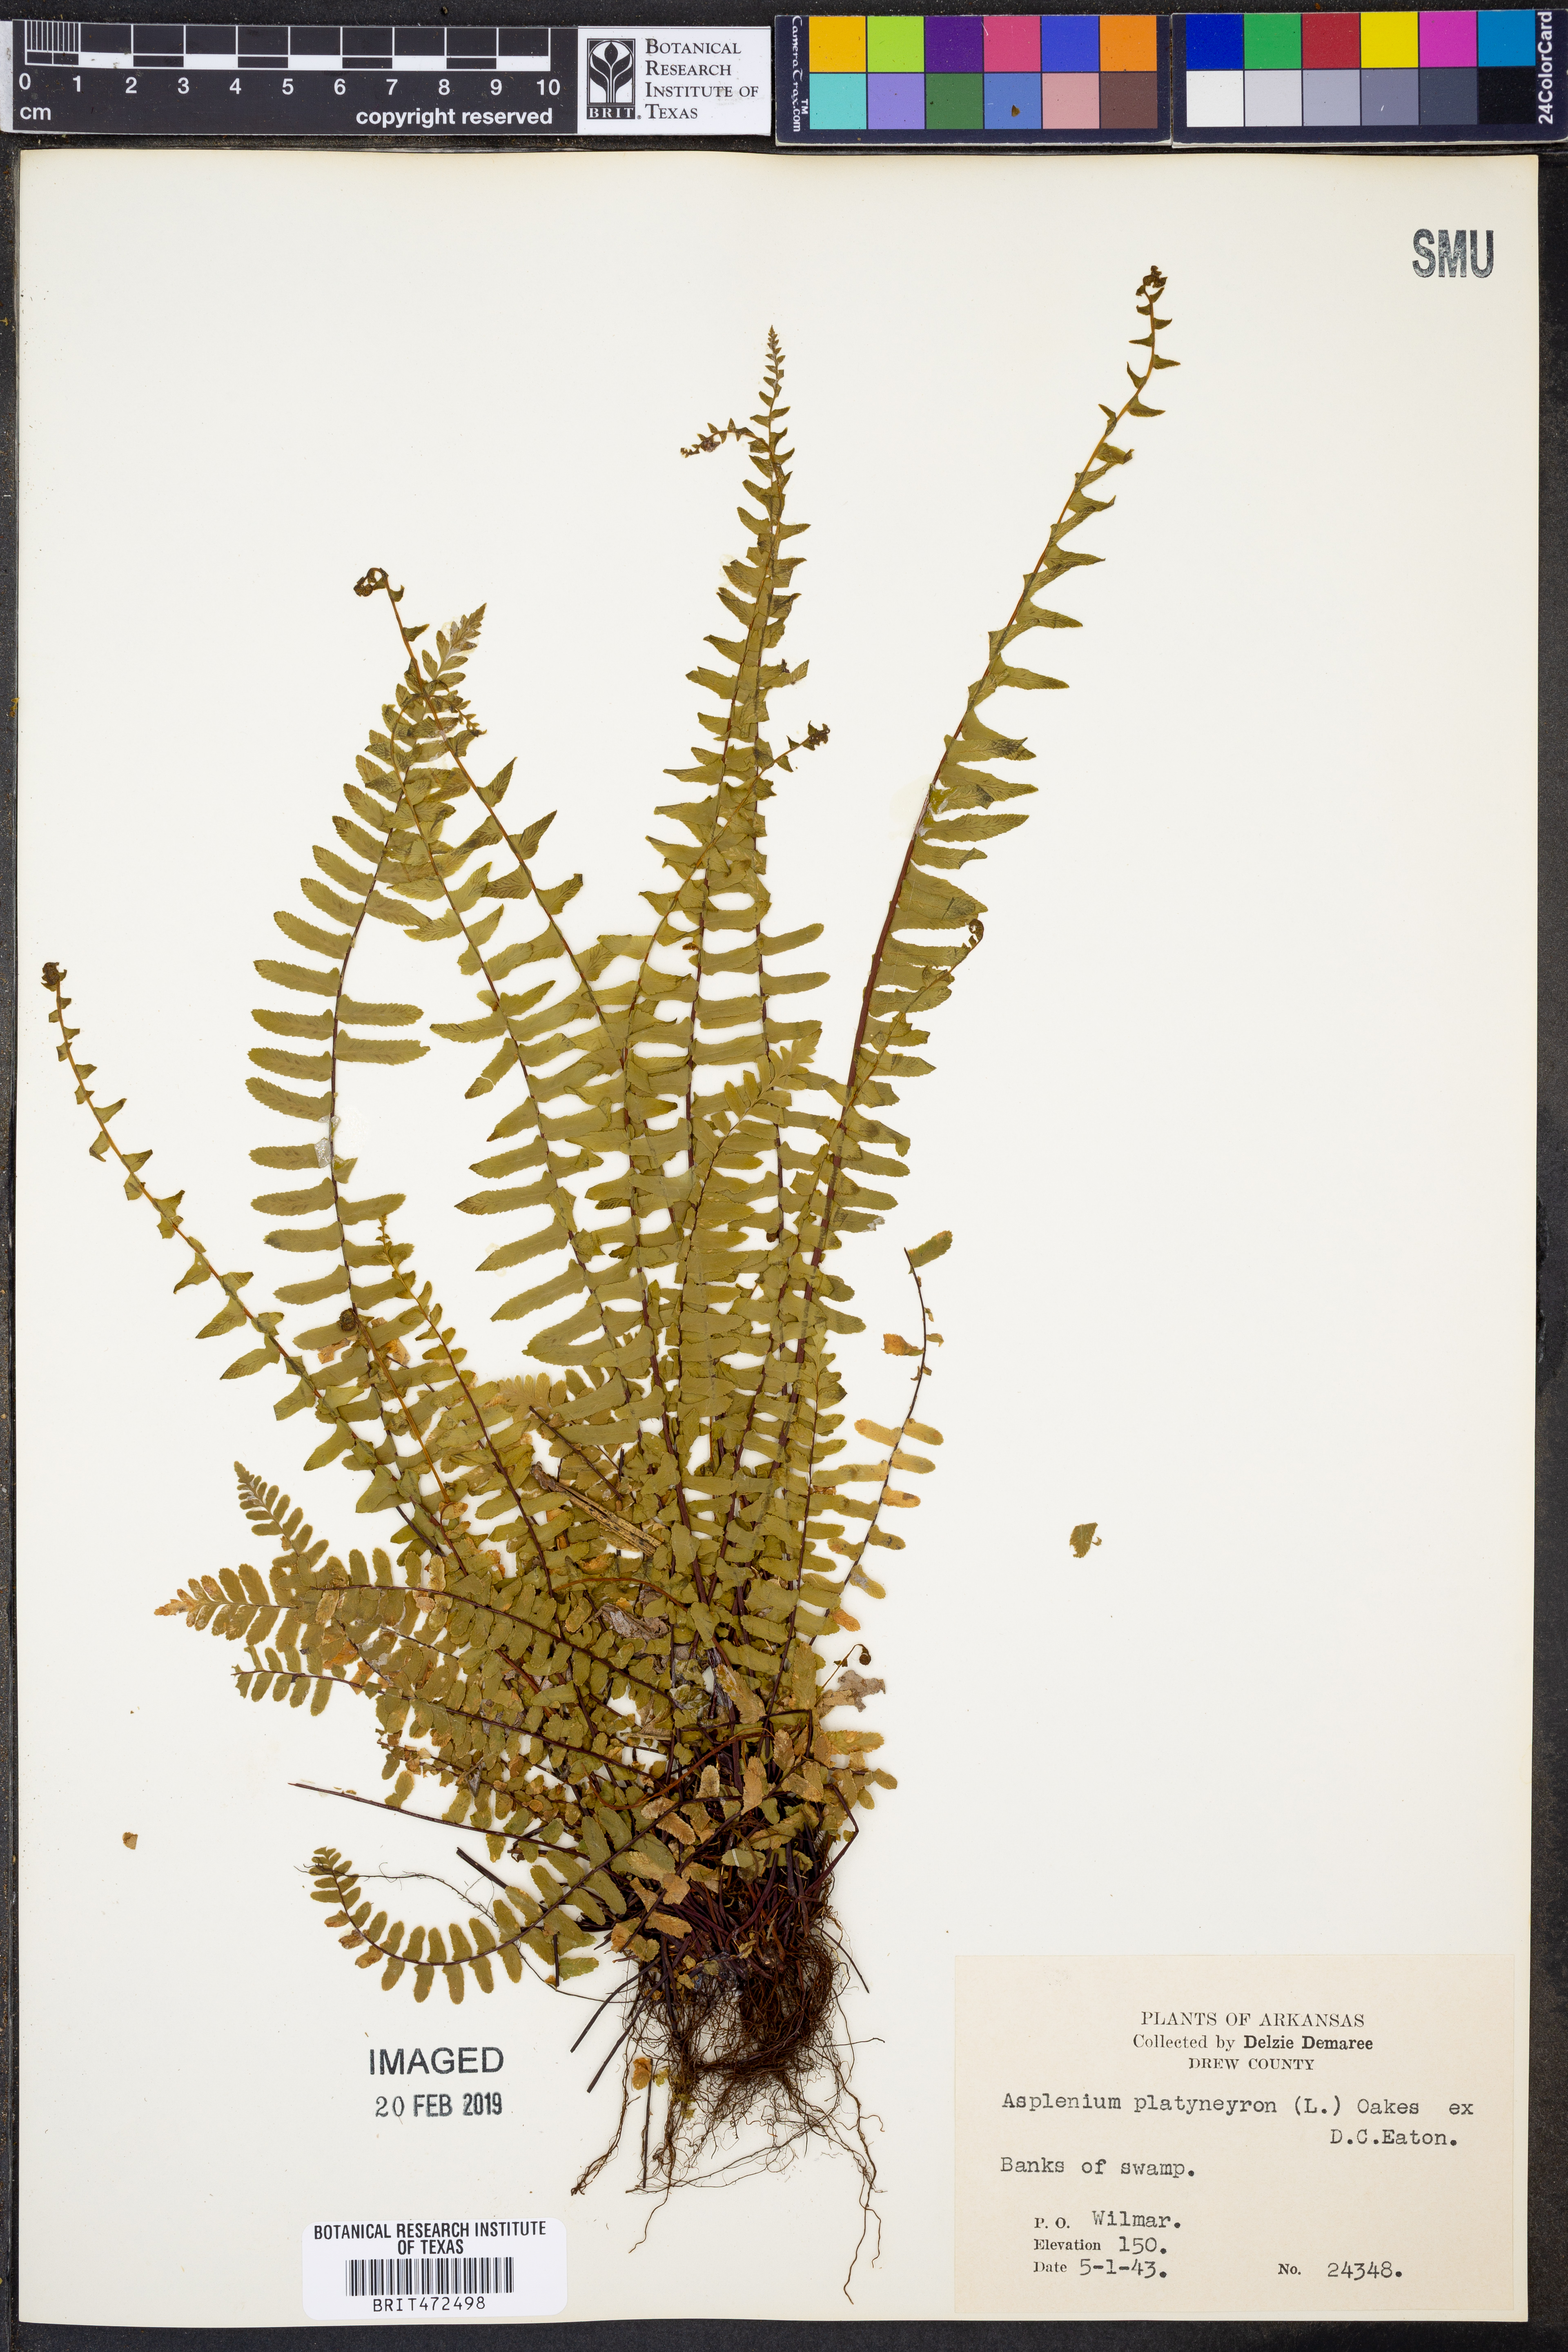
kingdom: Plantae
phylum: Tracheophyta
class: Polypodiopsida
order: Polypodiales
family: Aspleniaceae
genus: Asplenium
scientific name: Asplenium platyneuron
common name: Ebony spleenwort
